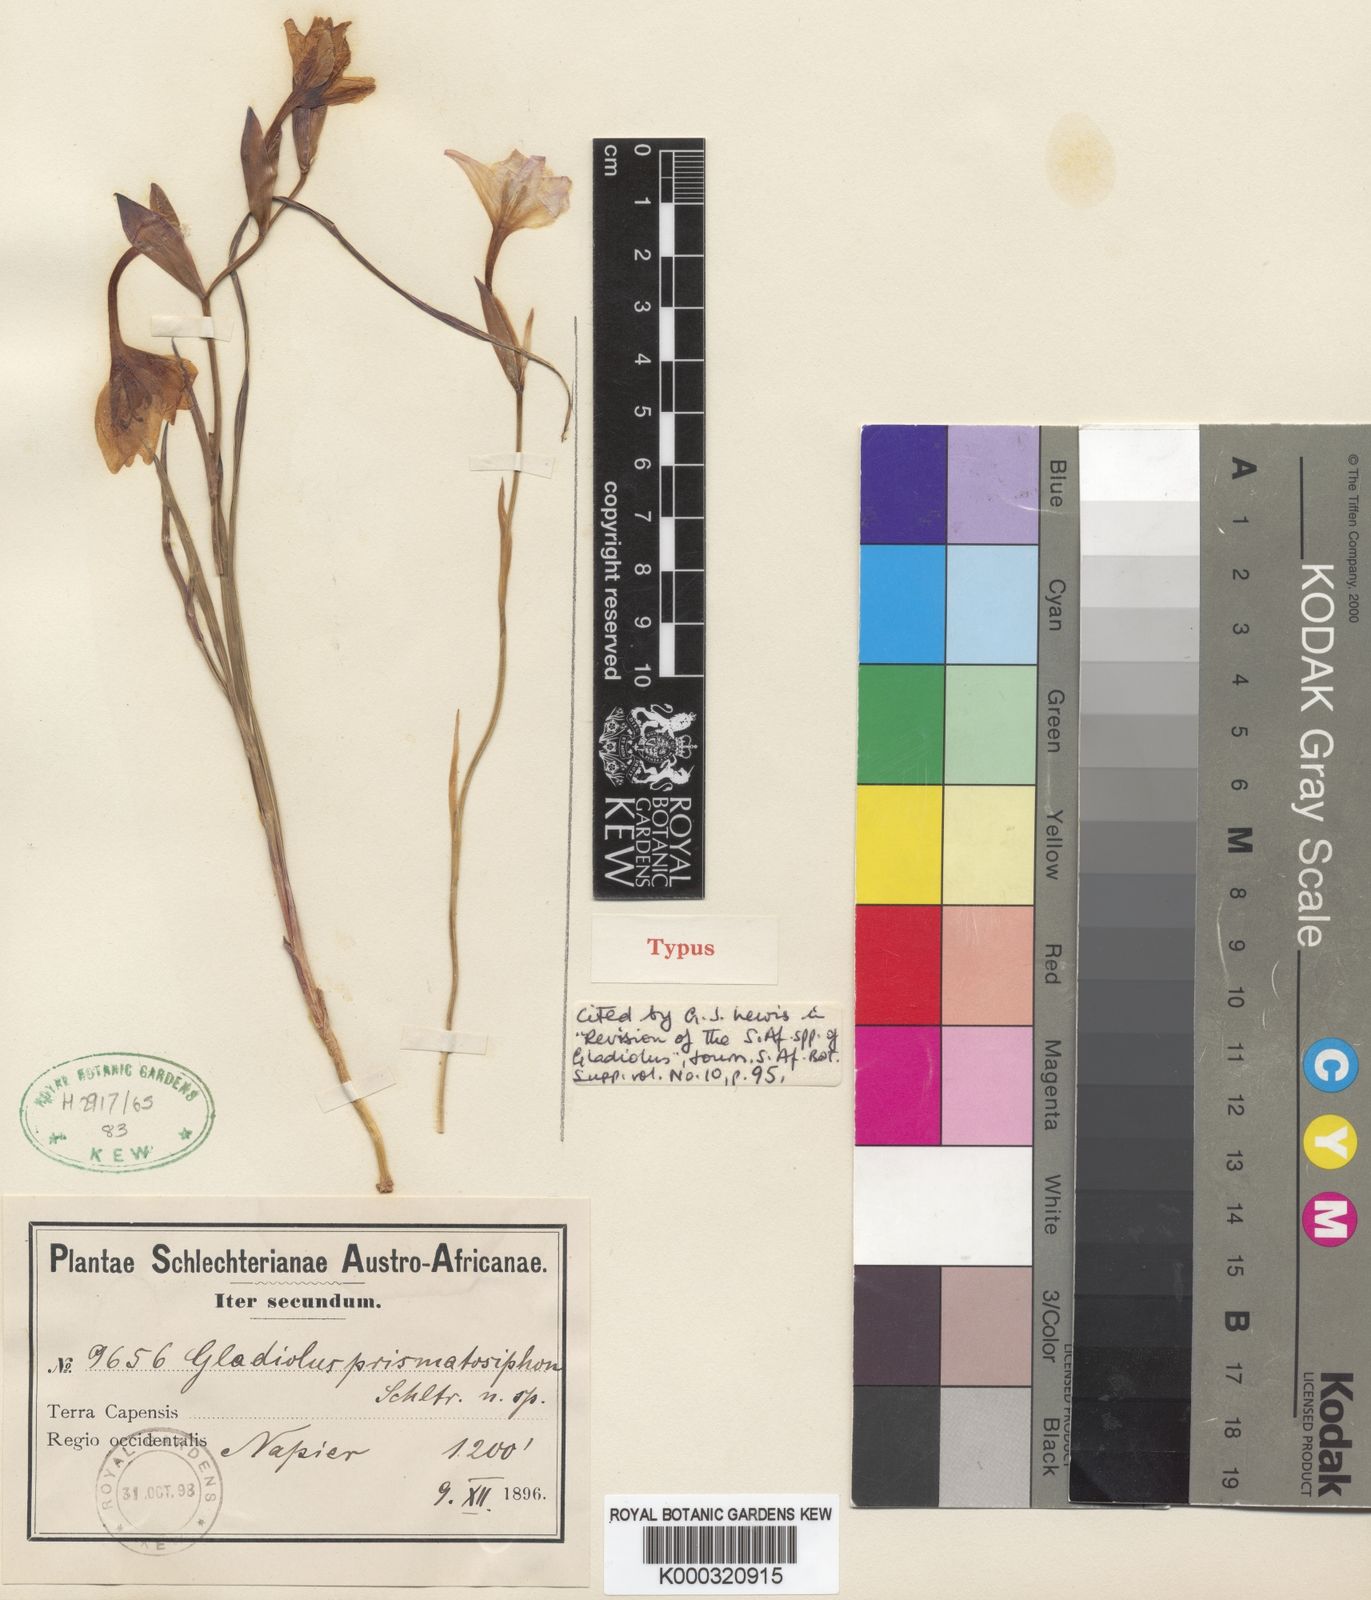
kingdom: Plantae
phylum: Tracheophyta
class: Liliopsida
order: Asparagales
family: Iridaceae
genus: Gladiolus
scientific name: Gladiolus carneus
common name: Painted-lady
